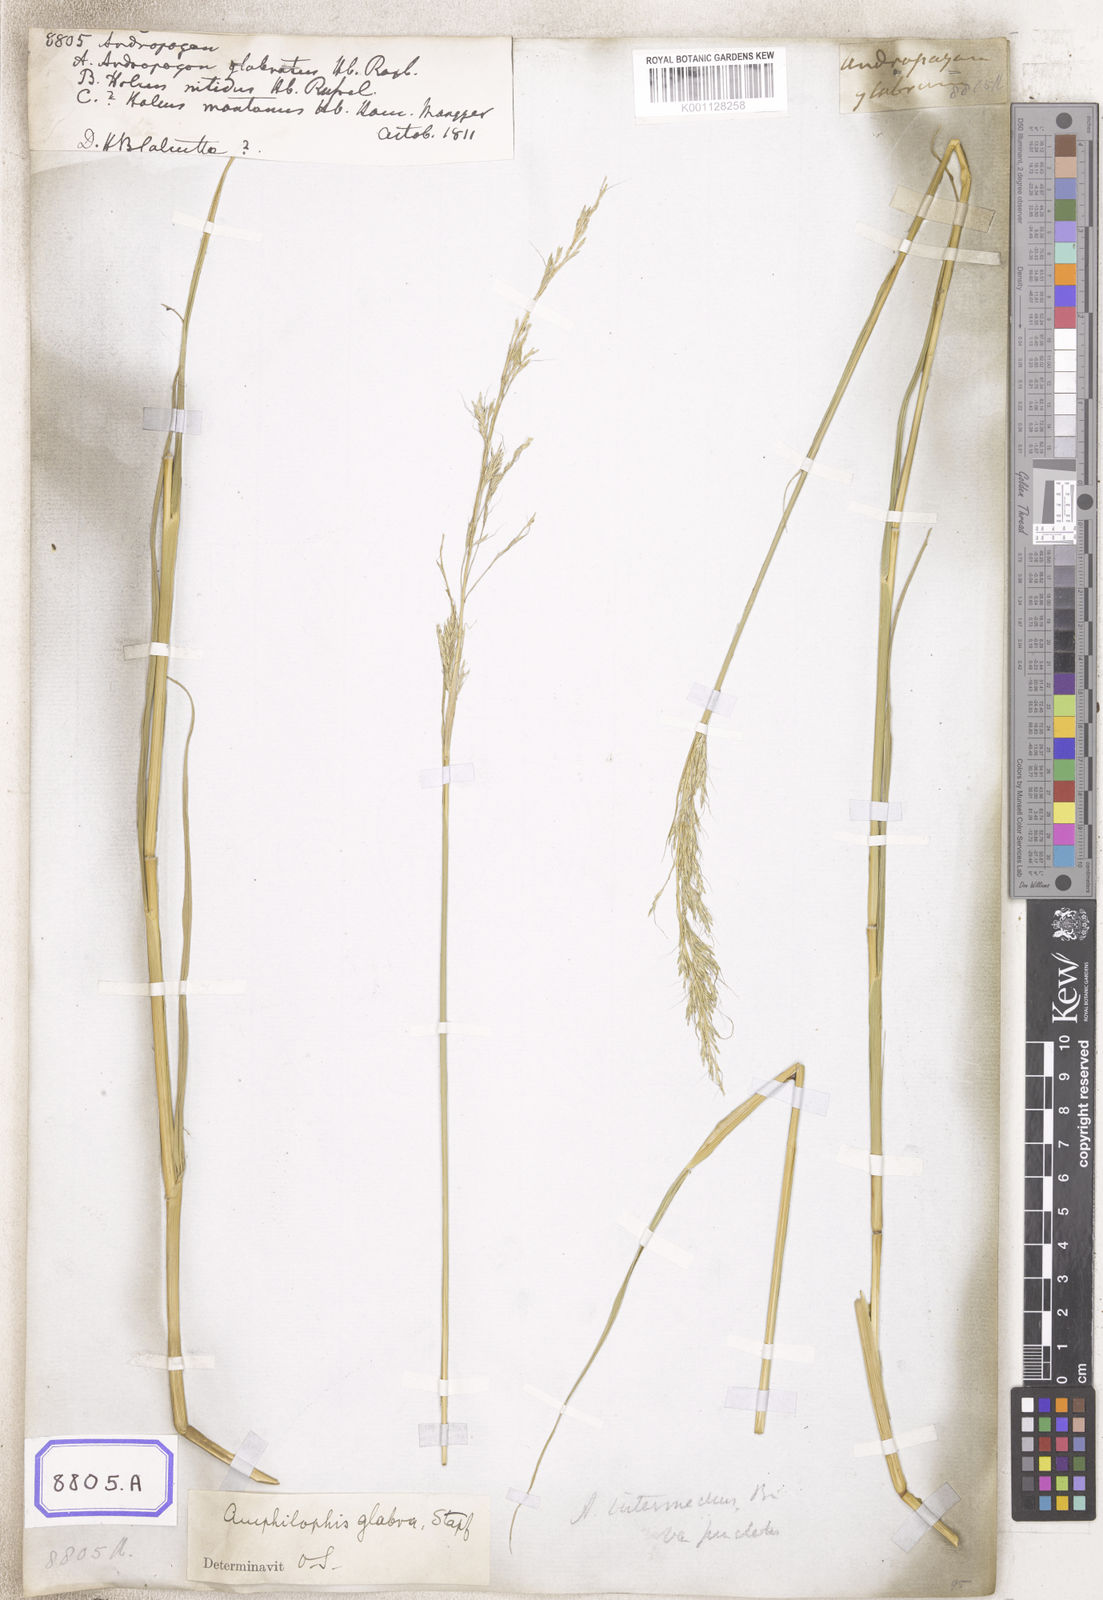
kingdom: Plantae
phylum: Tracheophyta
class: Liliopsida
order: Poales
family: Poaceae
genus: Andropogon
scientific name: Andropogon
